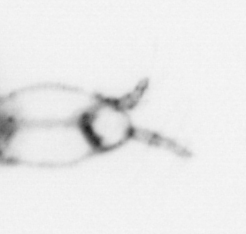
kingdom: Animalia
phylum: Arthropoda
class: Copepoda
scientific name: Copepoda
